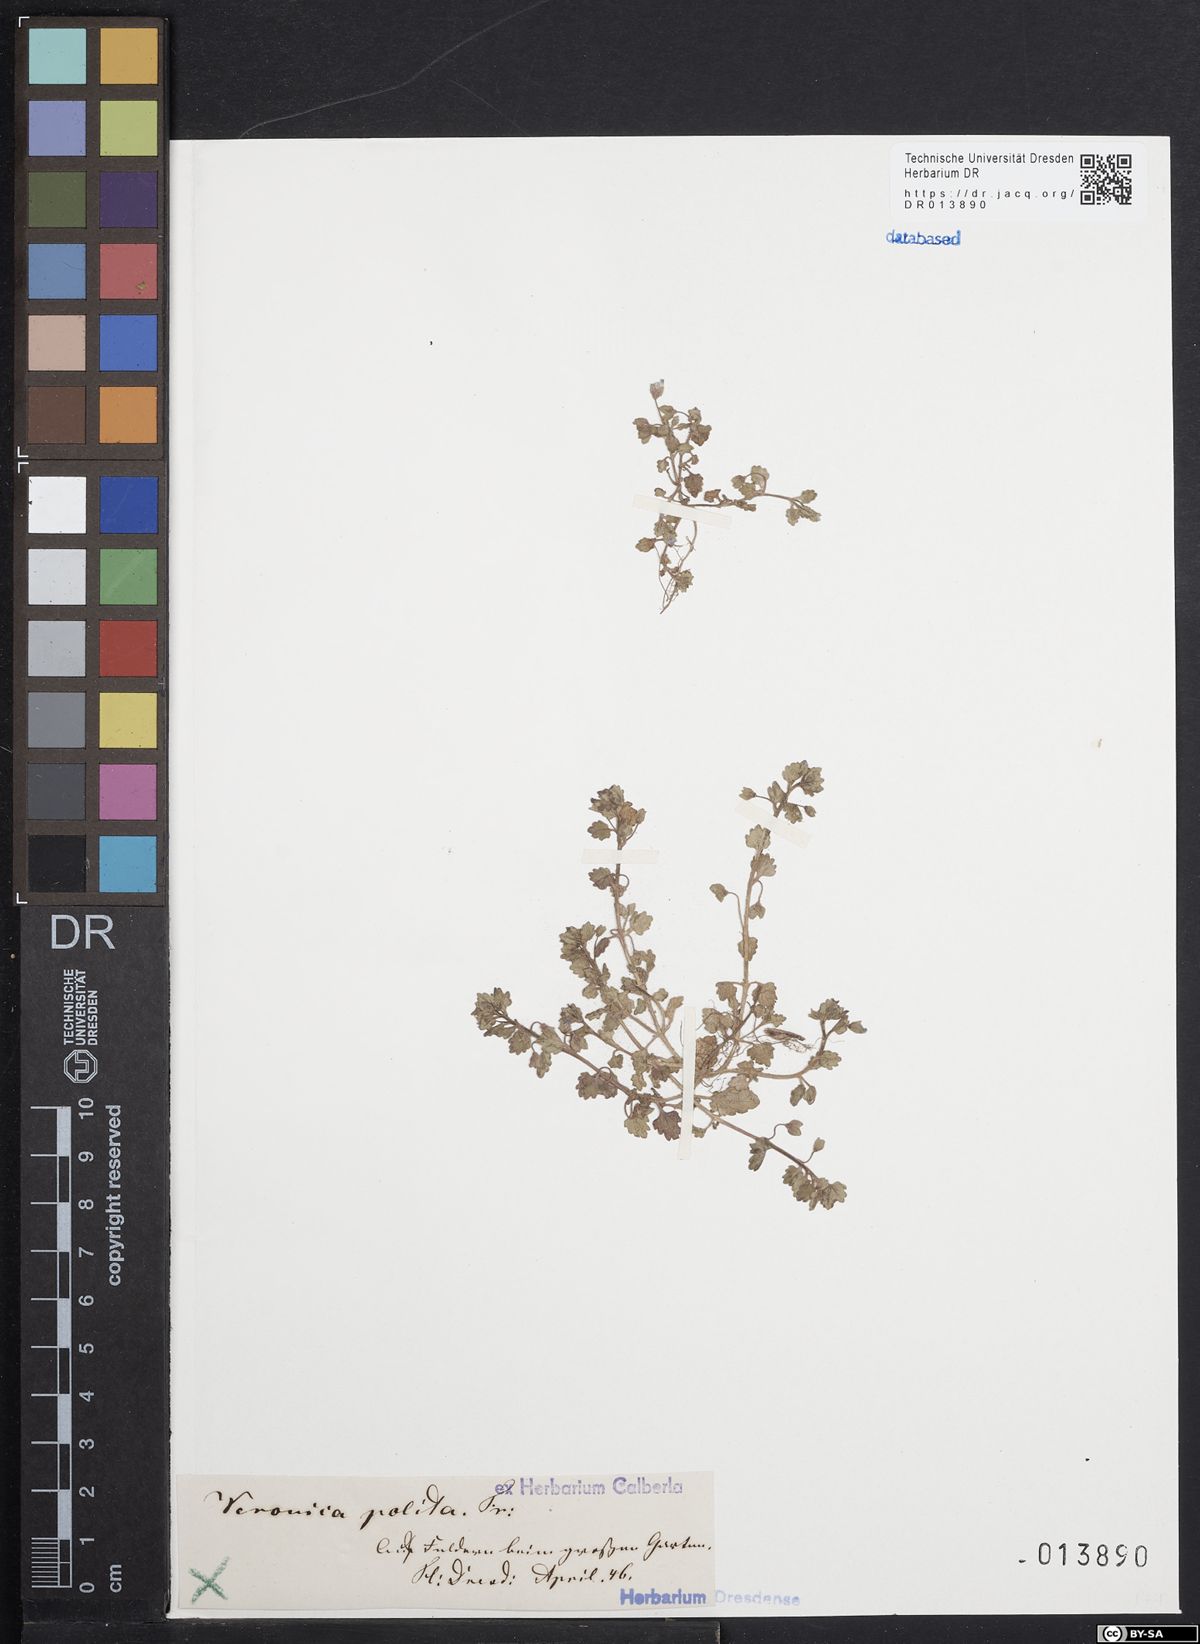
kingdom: Plantae
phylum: Tracheophyta
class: Magnoliopsida
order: Lamiales
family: Plantaginaceae
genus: Veronica
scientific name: Veronica polita
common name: Grey field-speedwell
